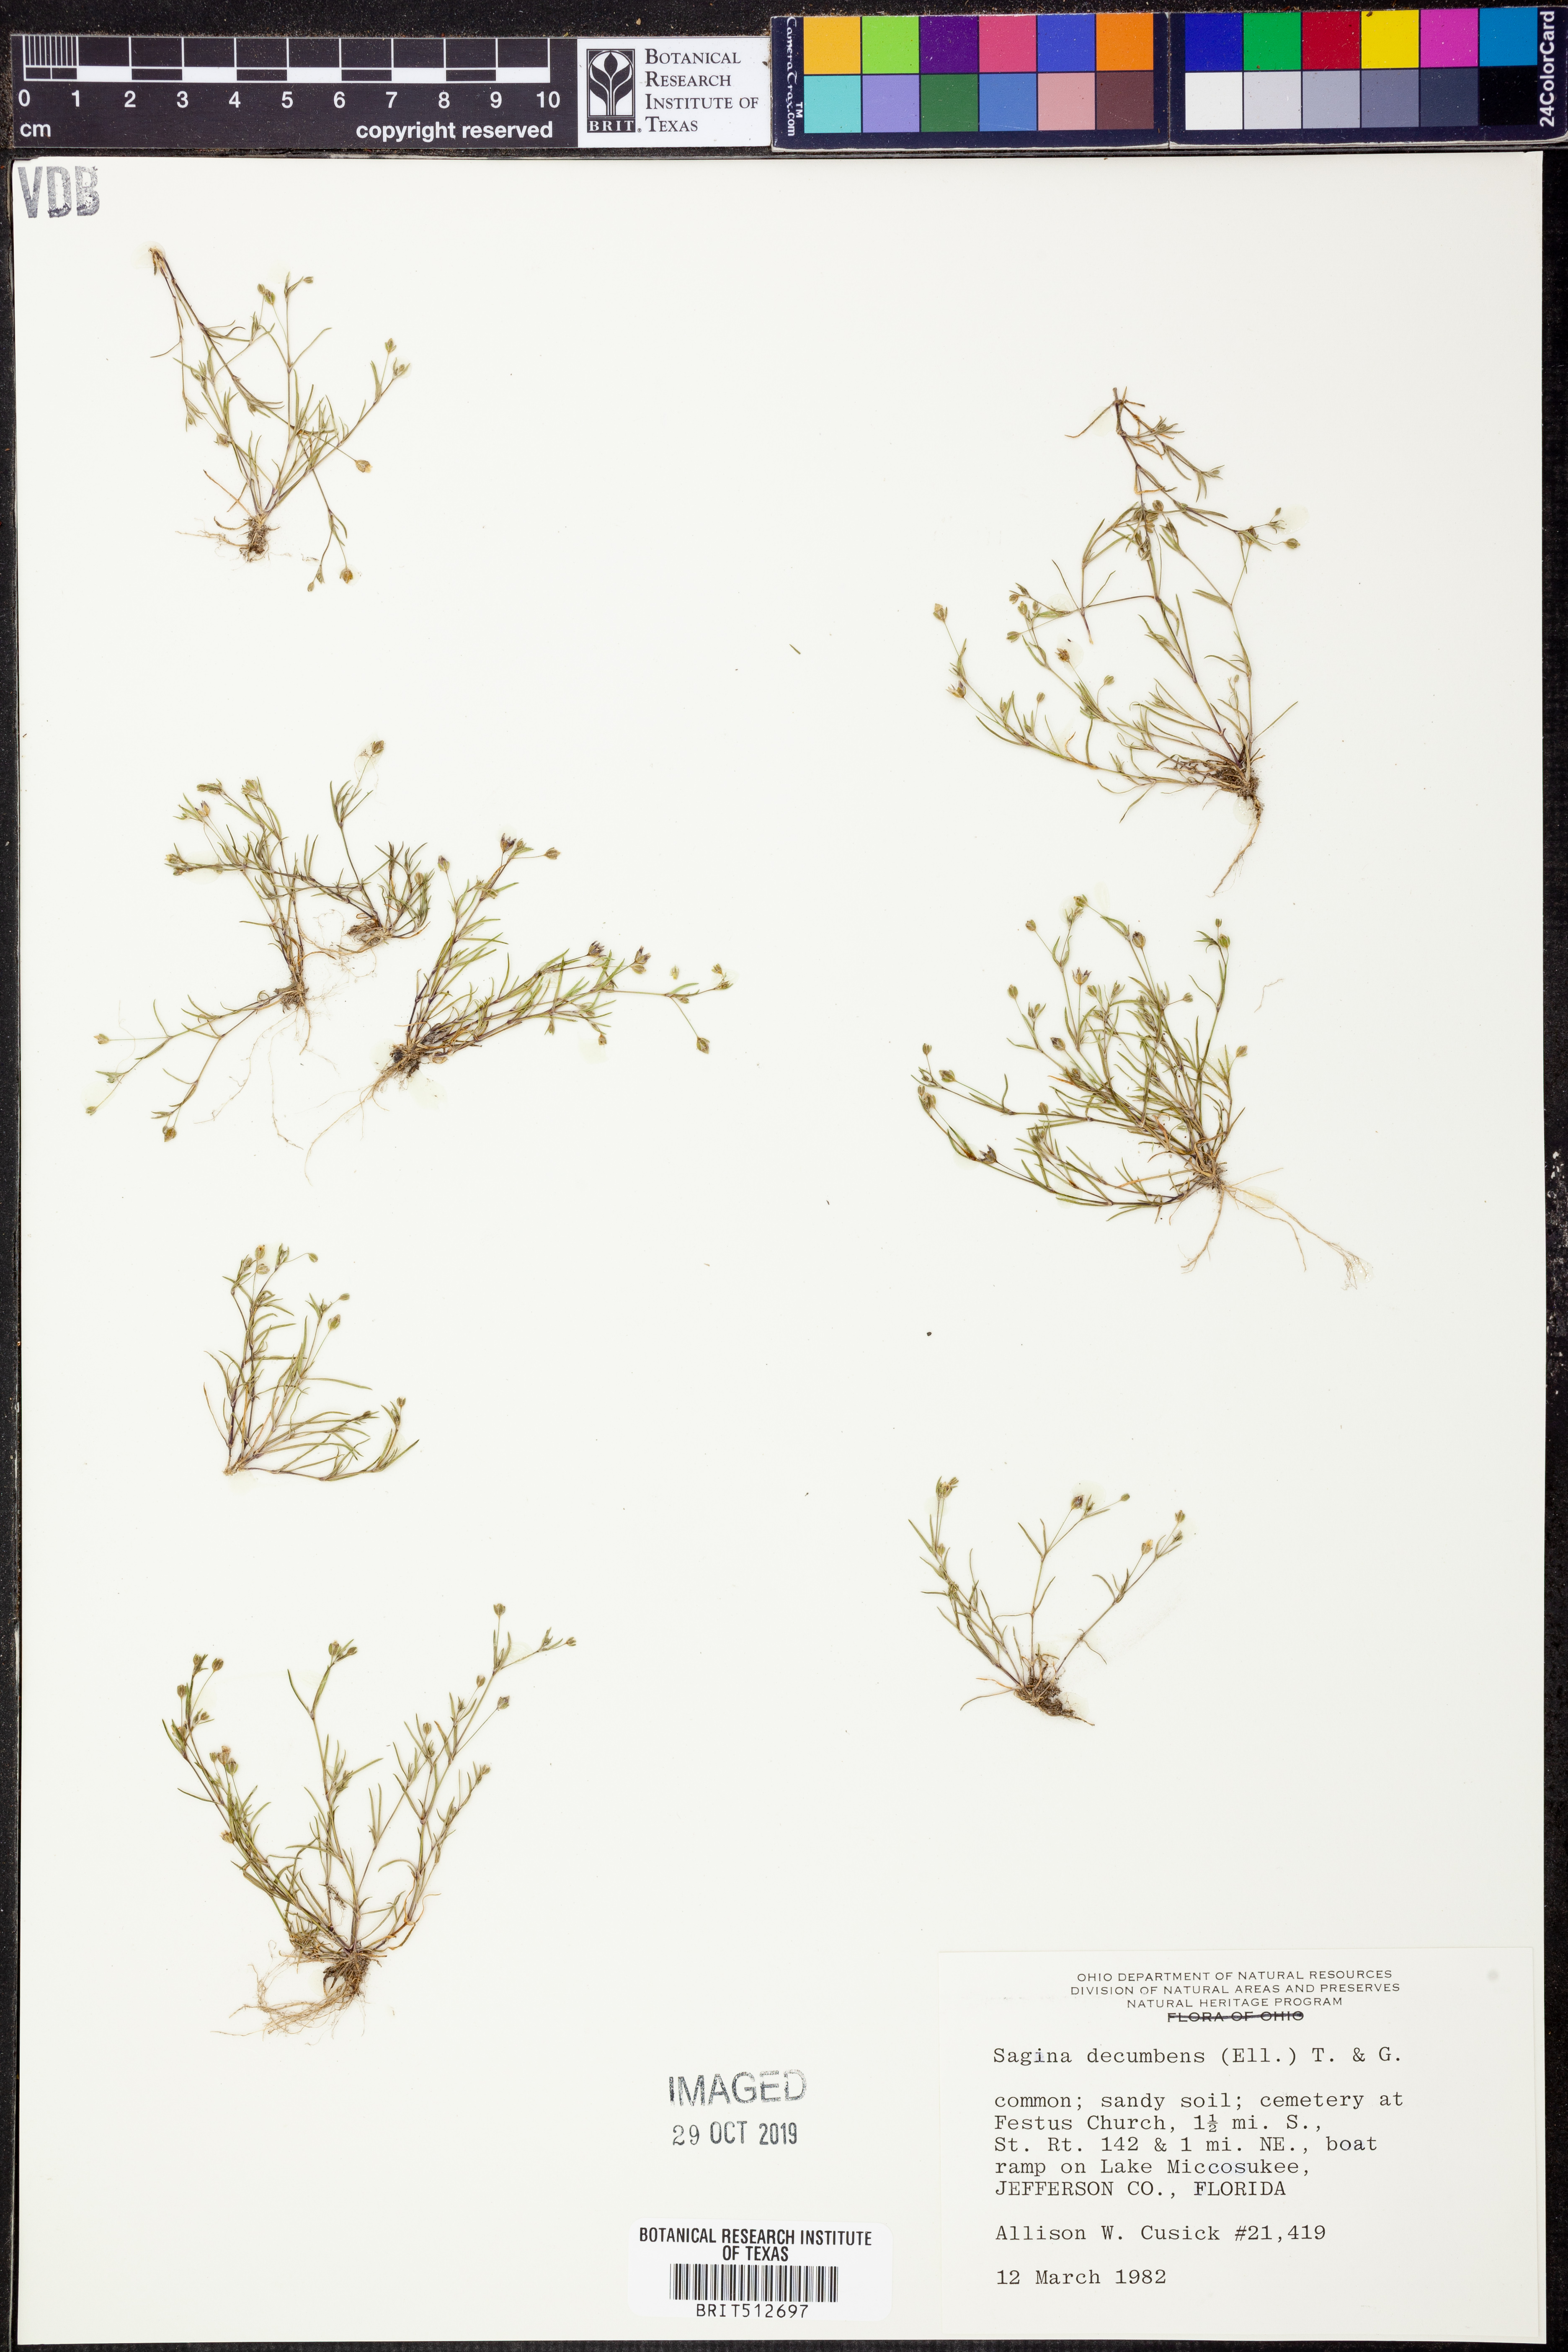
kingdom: Plantae
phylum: Tracheophyta
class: Magnoliopsida
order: Caryophyllales
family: Caryophyllaceae
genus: Sagina
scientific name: Sagina decumbens
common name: Decumbent pearlwort
